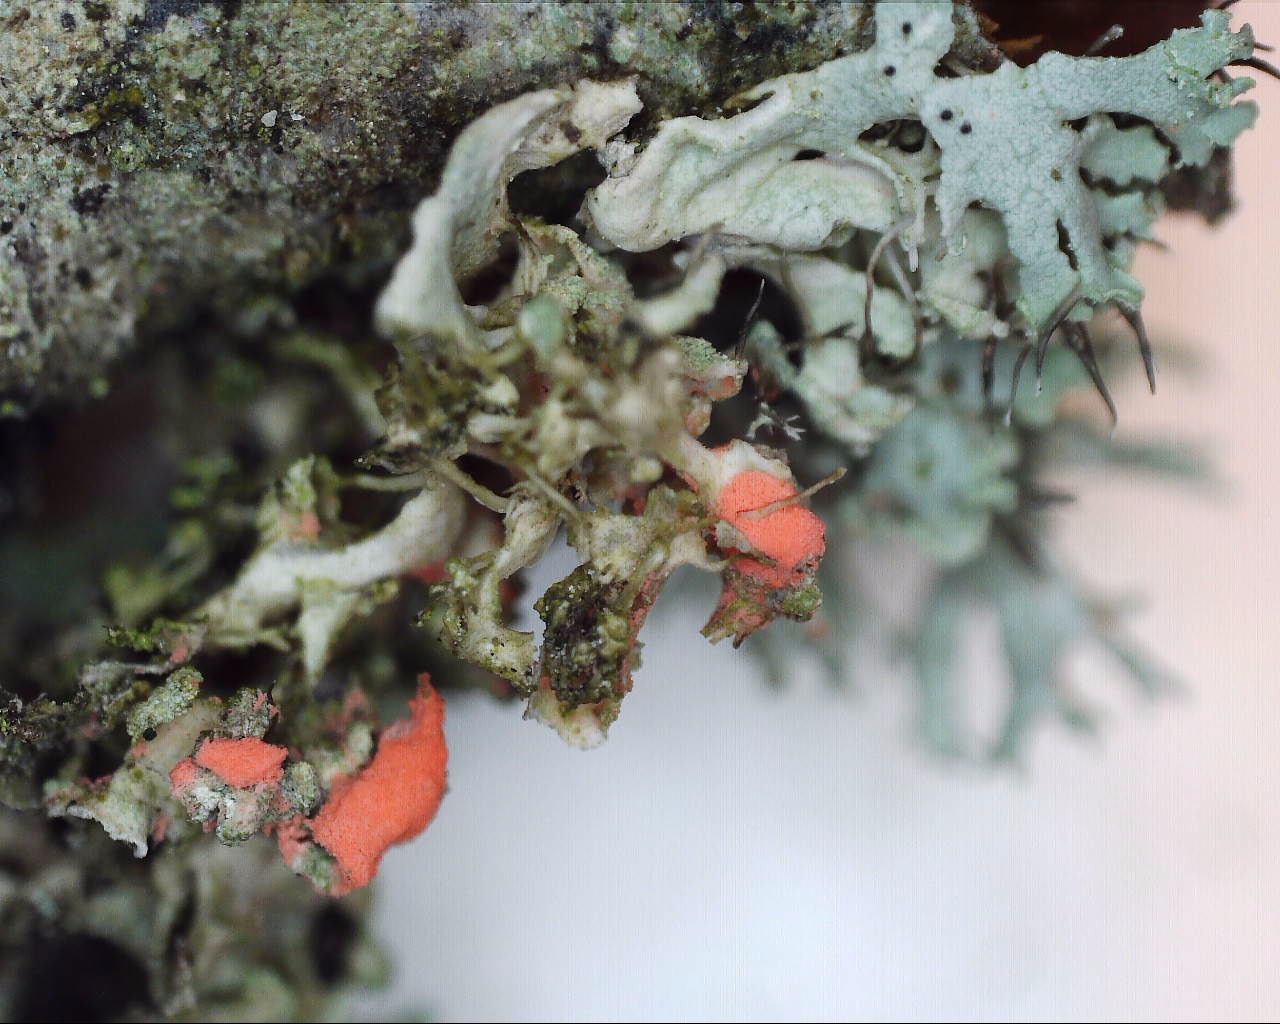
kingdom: Fungi
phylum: Ascomycota
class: Sordariomycetes
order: Hypocreales
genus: Illosporiopsis
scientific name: Illosporiopsis christiansenii
